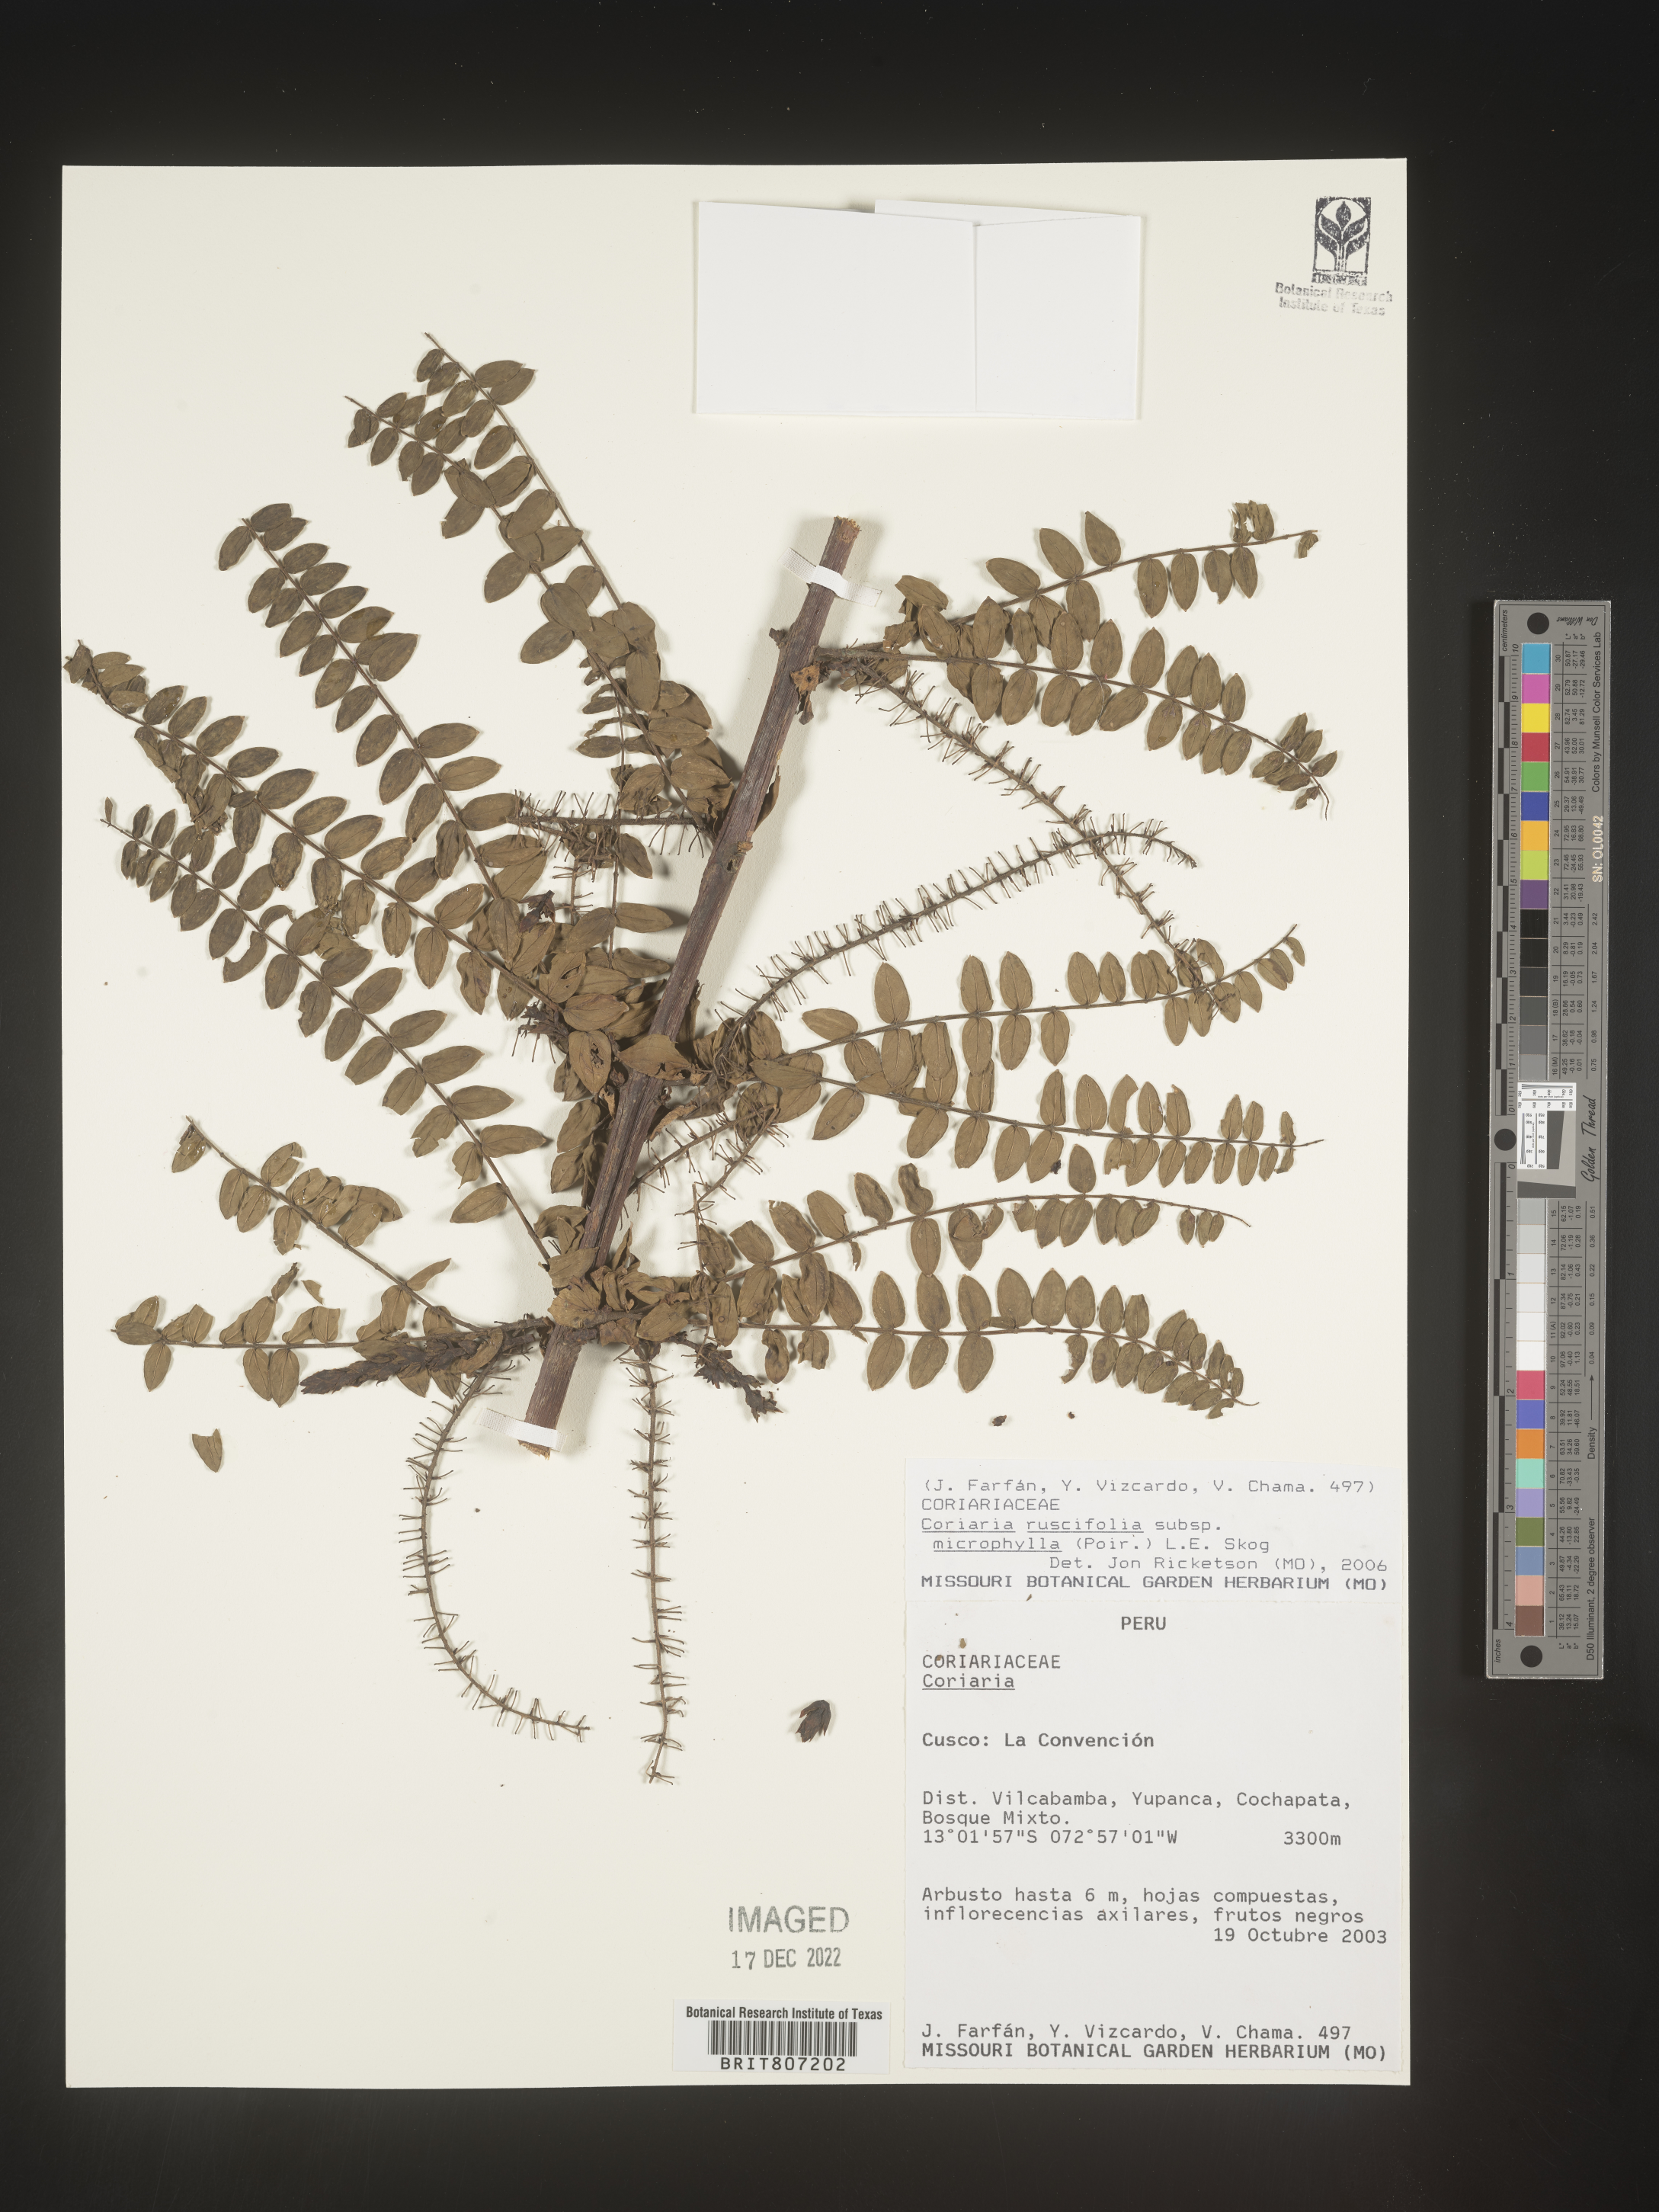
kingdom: Plantae
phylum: Tracheophyta
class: Magnoliopsida
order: Cucurbitales
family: Coriariaceae
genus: Coriaria
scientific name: Coriaria
